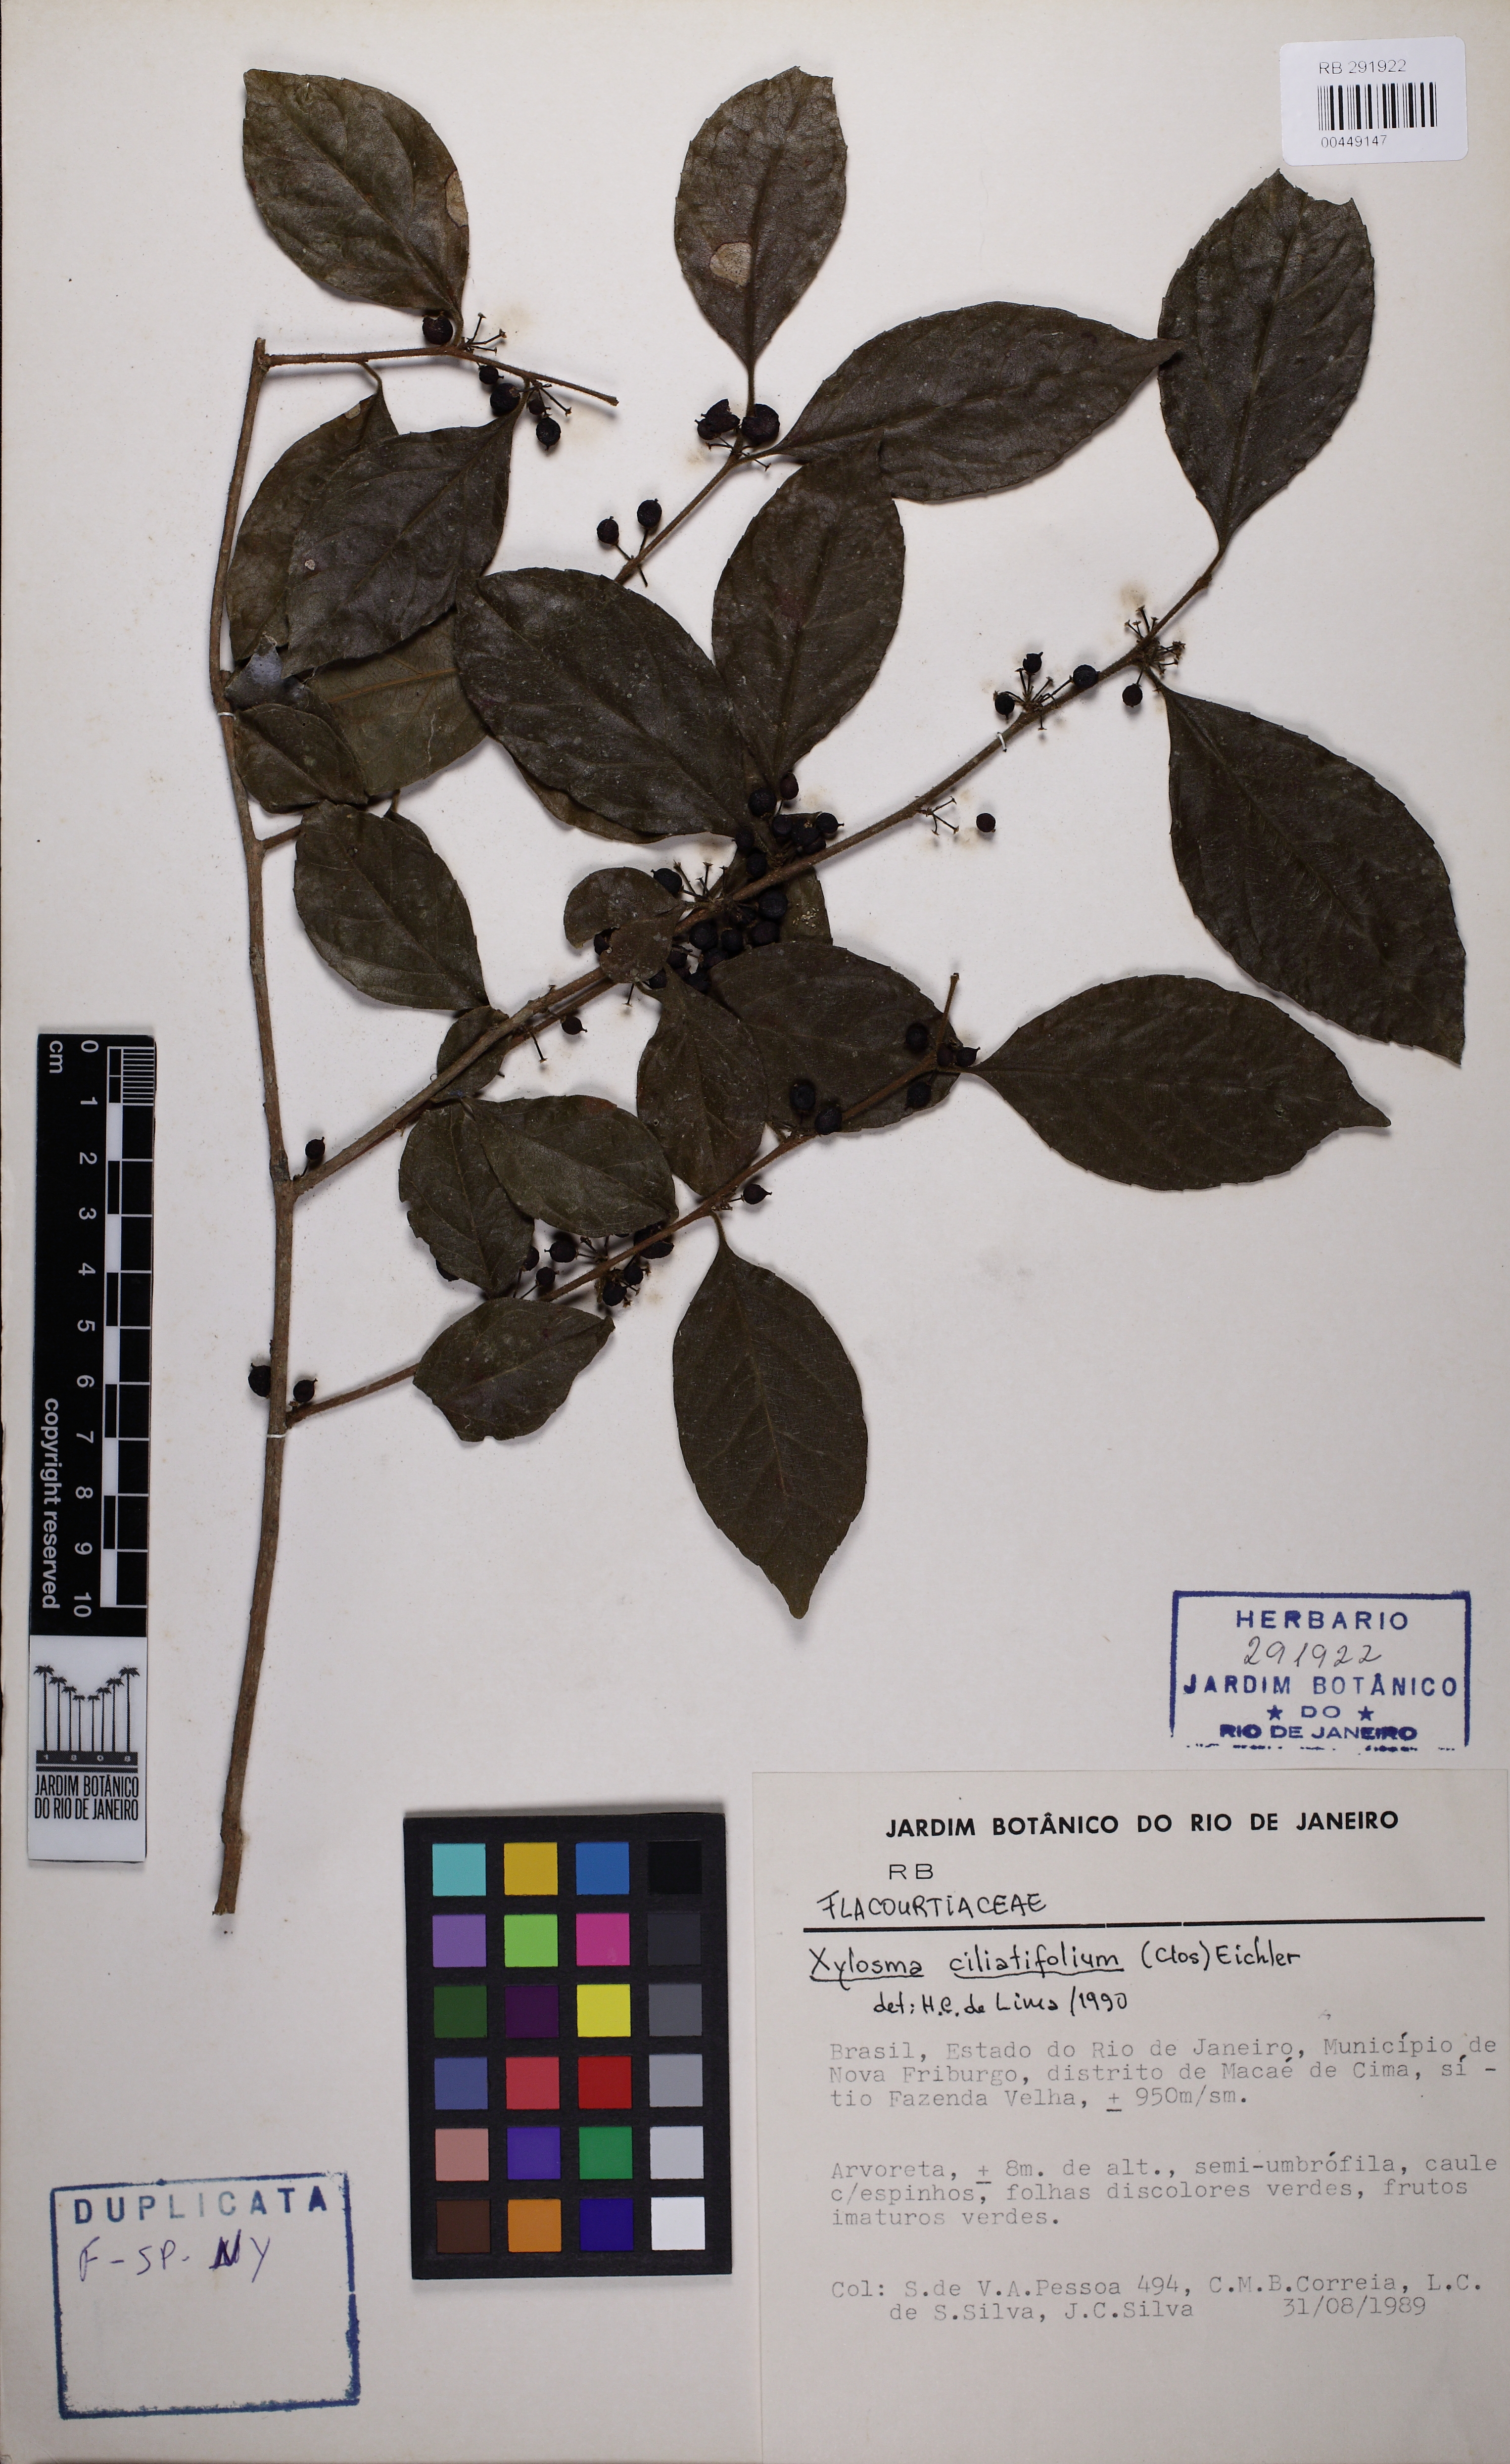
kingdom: Plantae
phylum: Tracheophyta
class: Magnoliopsida
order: Malpighiales
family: Salicaceae
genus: Xylosma
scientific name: Xylosma ciliatifolia
